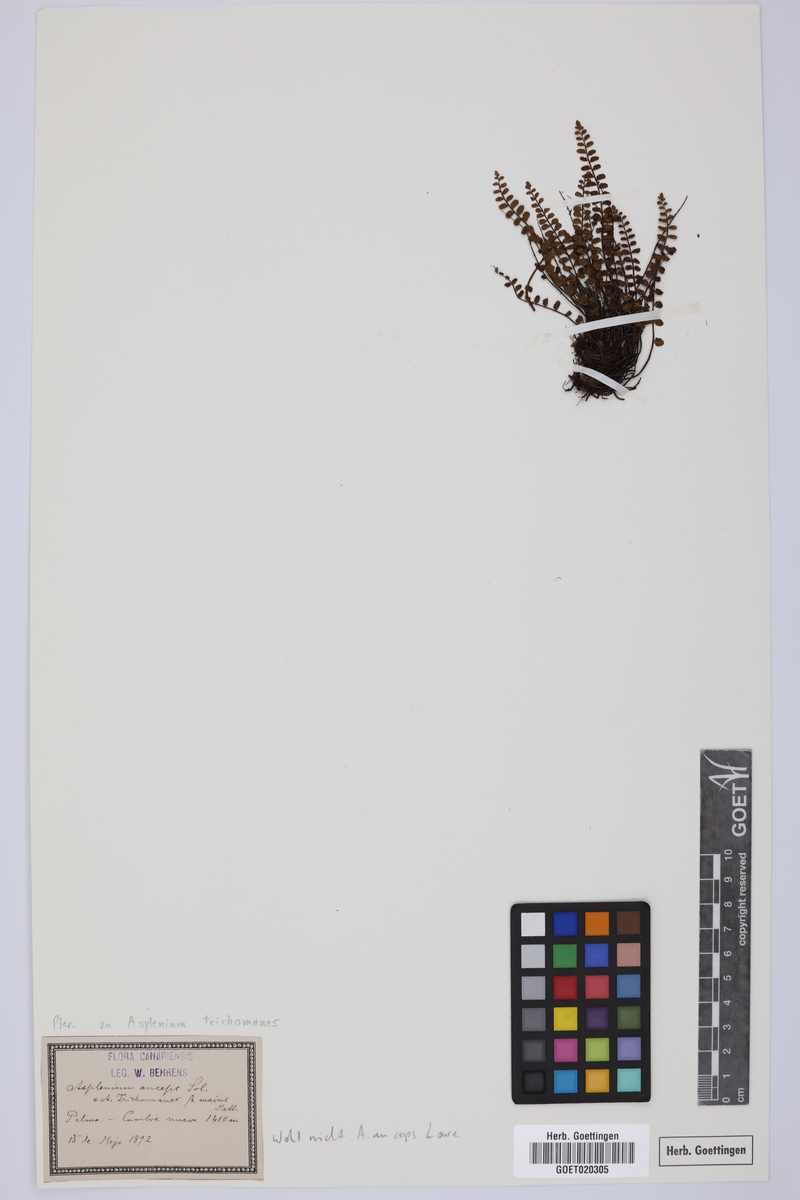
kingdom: Plantae
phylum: Tracheophyta
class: Polypodiopsida
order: Polypodiales
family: Aspleniaceae
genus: Asplenium
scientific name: Asplenium trichomanes
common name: Maidenhair spleenwort
